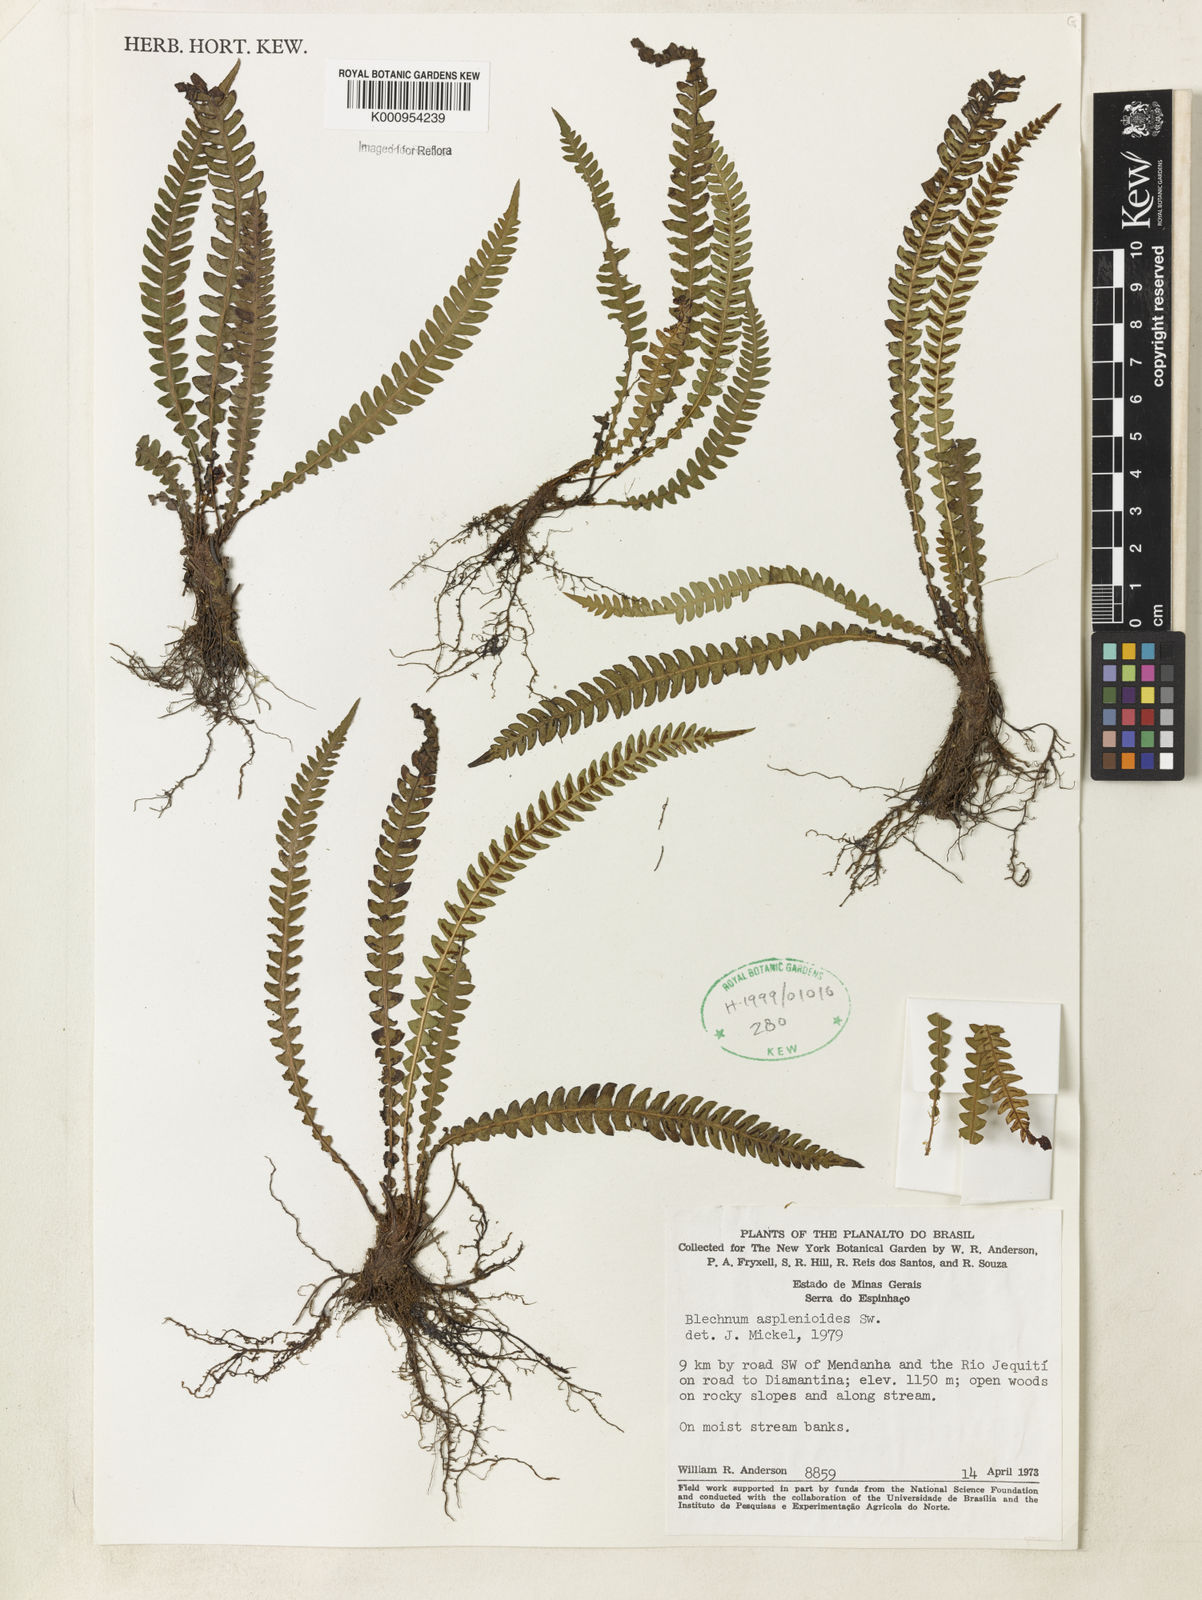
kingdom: Plantae
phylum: Tracheophyta
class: Polypodiopsida
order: Polypodiales
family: Blechnaceae
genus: Blechnum
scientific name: Blechnum asplenioides
